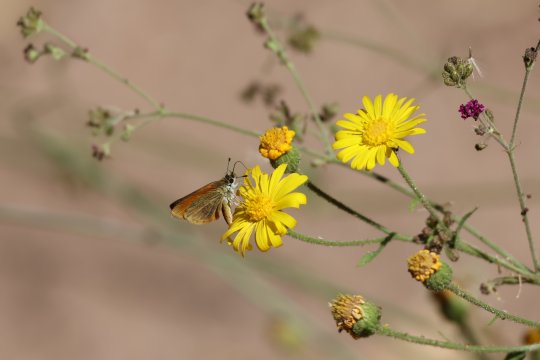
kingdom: Animalia
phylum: Arthropoda
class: Insecta
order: Lepidoptera
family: Hesperiidae
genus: Ancyloxypha
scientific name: Ancyloxypha arene
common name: Tropical Least Skipper
